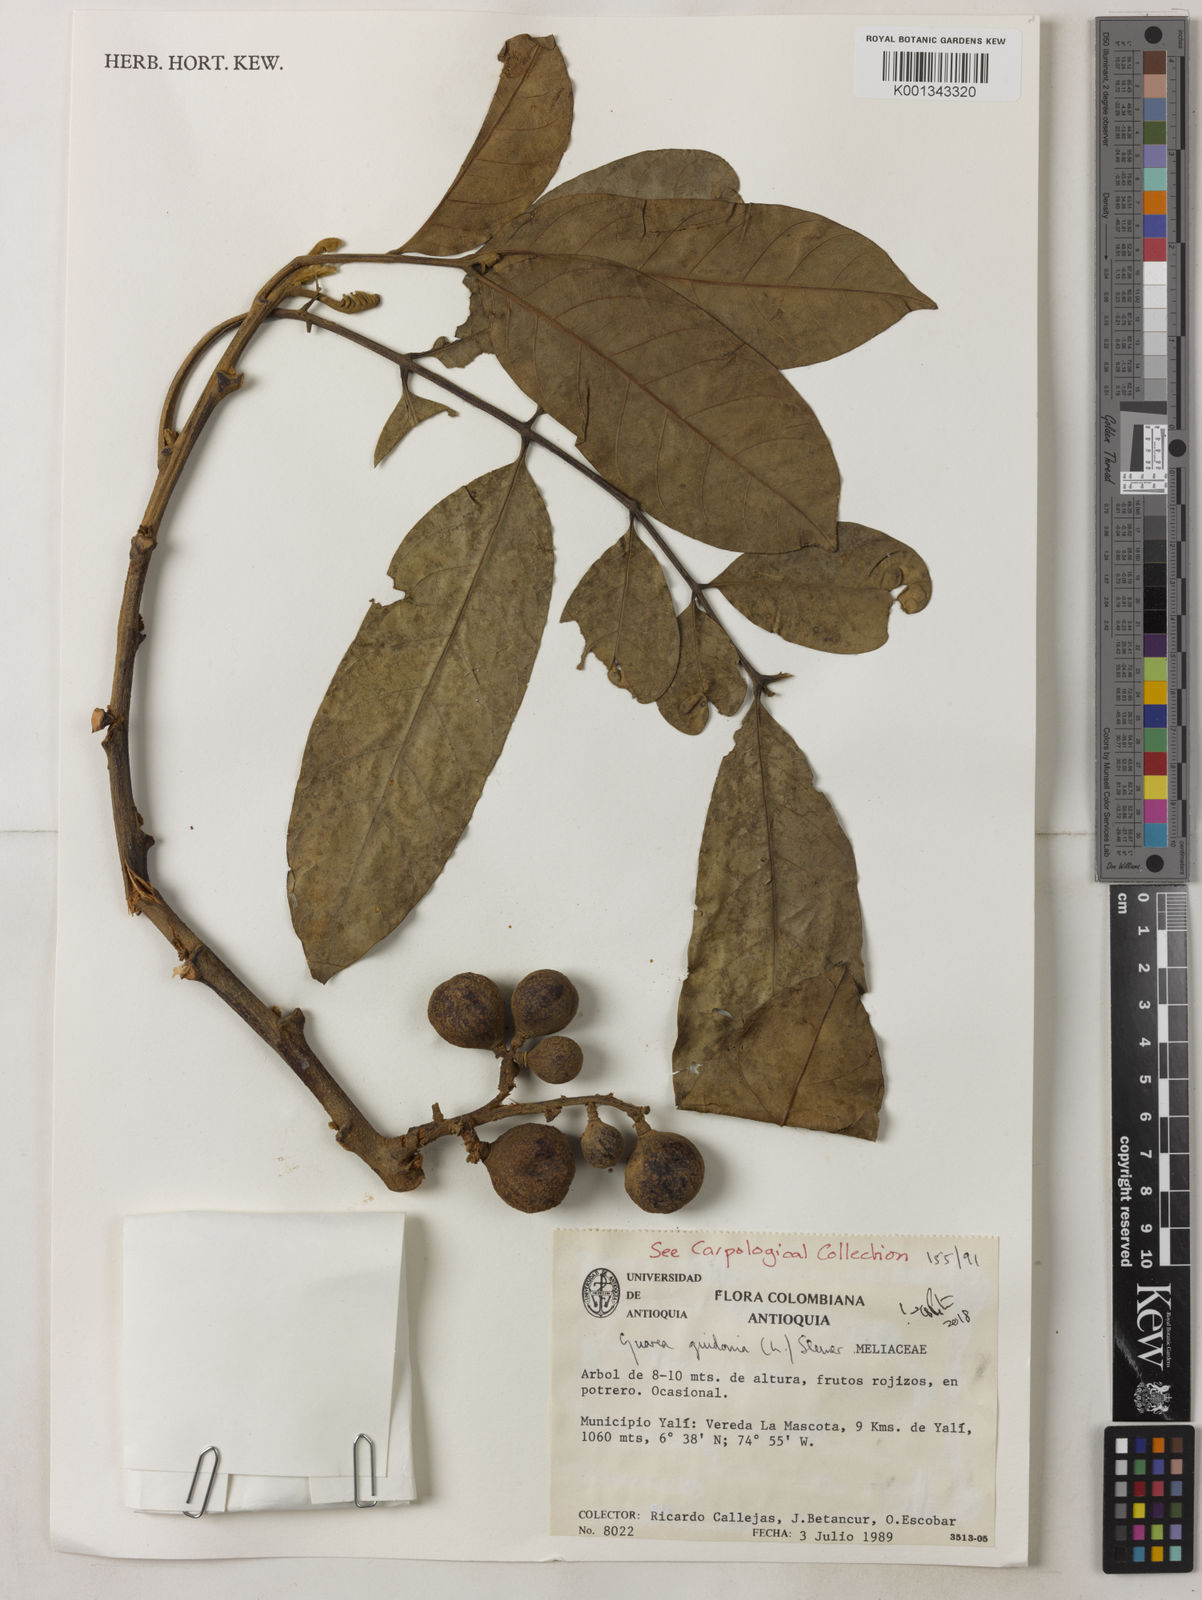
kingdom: Plantae
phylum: Tracheophyta
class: Magnoliopsida
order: Sapindales
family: Meliaceae
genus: Guarea
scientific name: Guarea guidonia
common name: American muskwood
